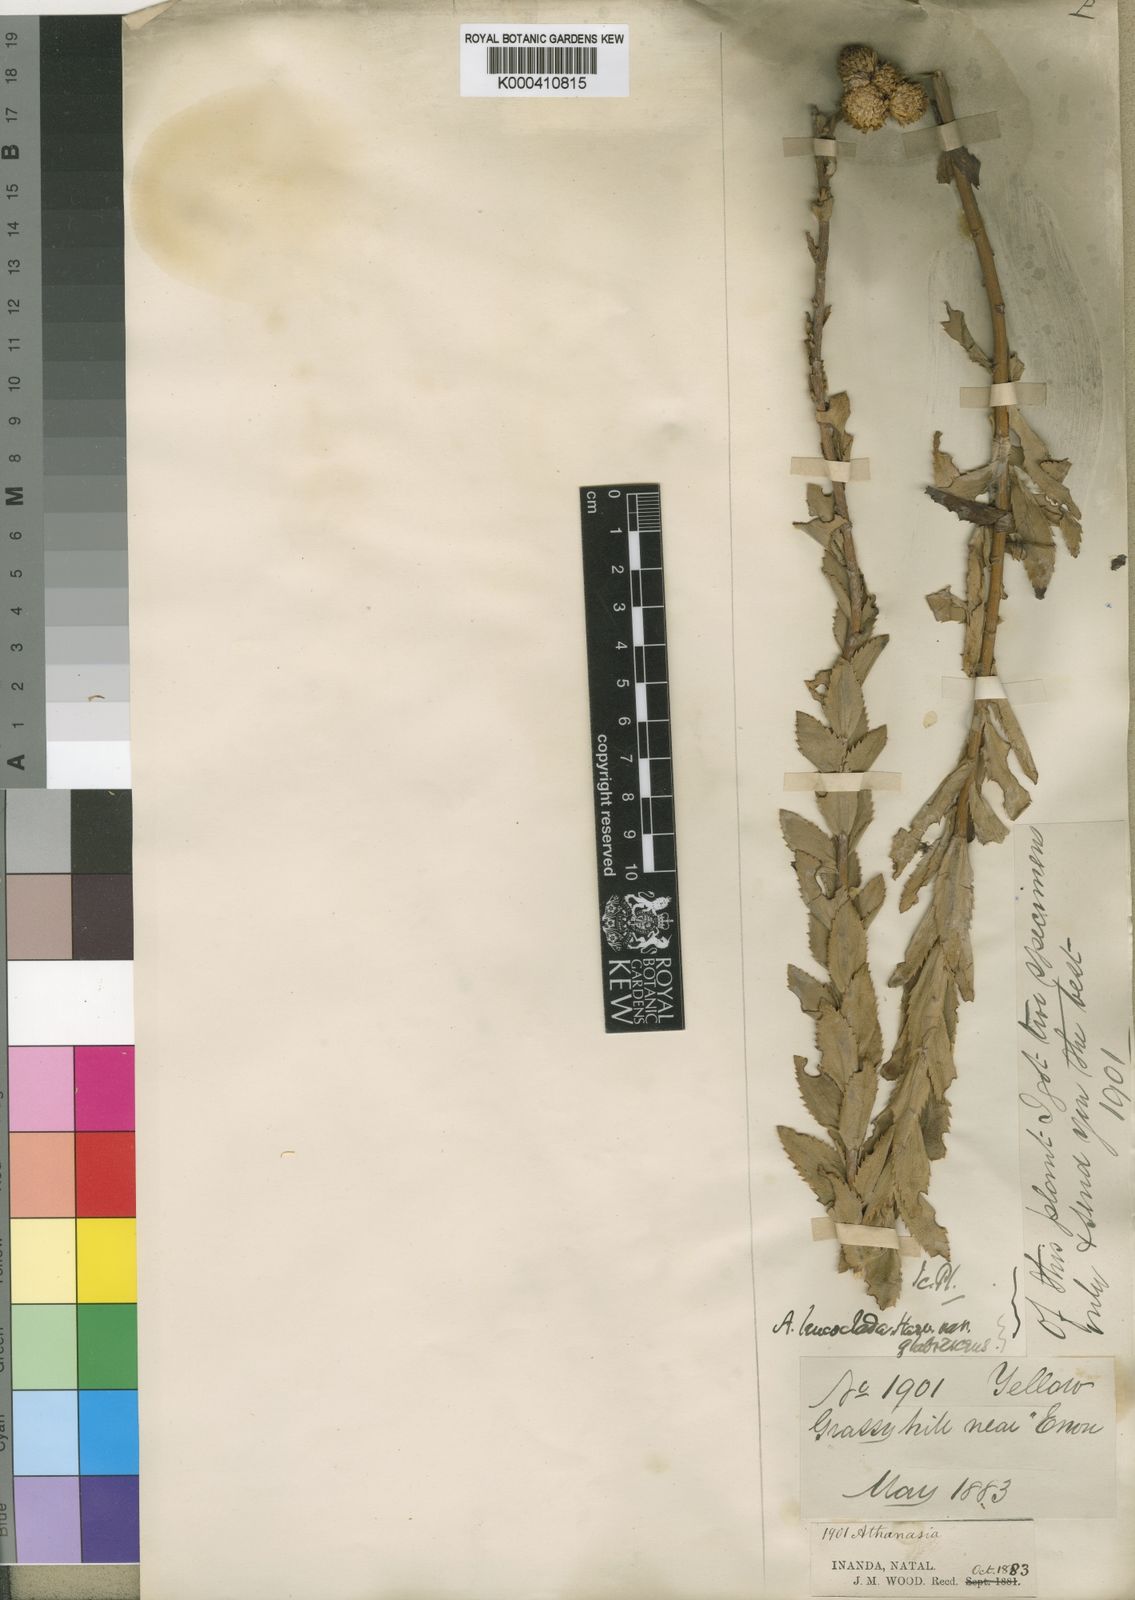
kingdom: Plantae
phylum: Tracheophyta
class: Magnoliopsida
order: Asterales
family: Asteraceae
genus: Inulanthera
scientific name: Inulanthera
